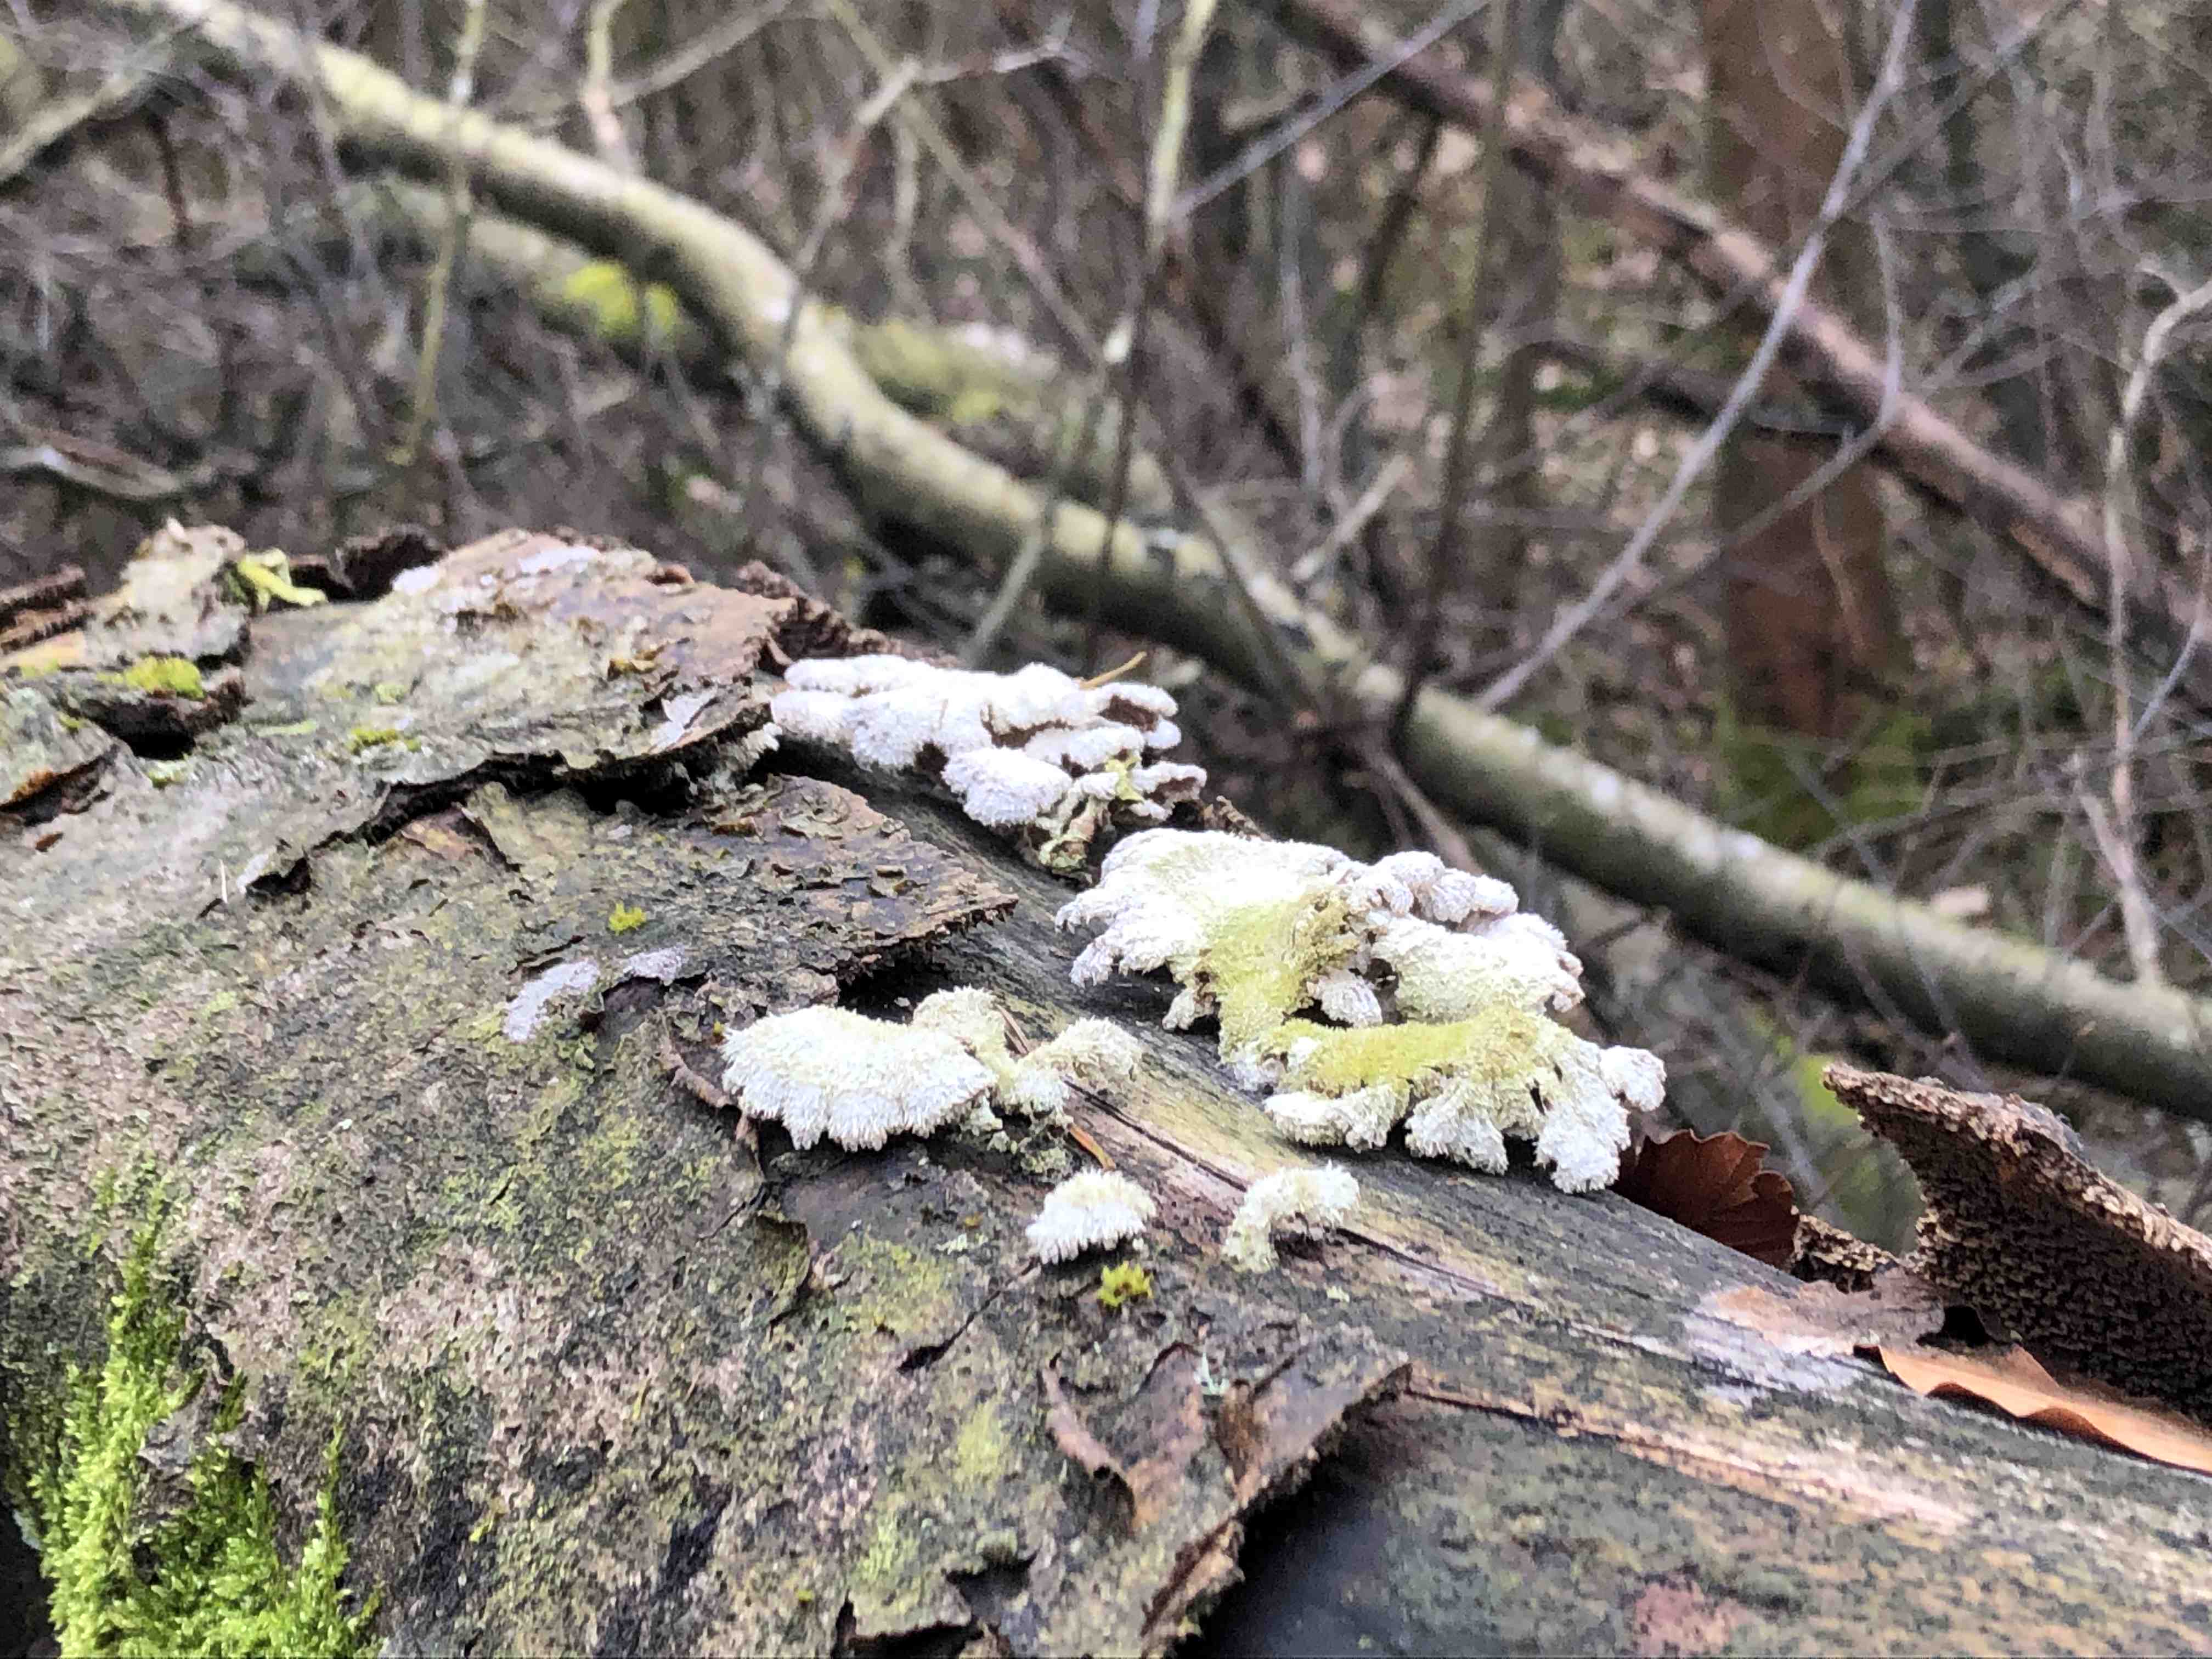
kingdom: Fungi
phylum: Basidiomycota
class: Agaricomycetes
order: Agaricales
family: Schizophyllaceae
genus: Schizophyllum
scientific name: Schizophyllum commune
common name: kløvblad
